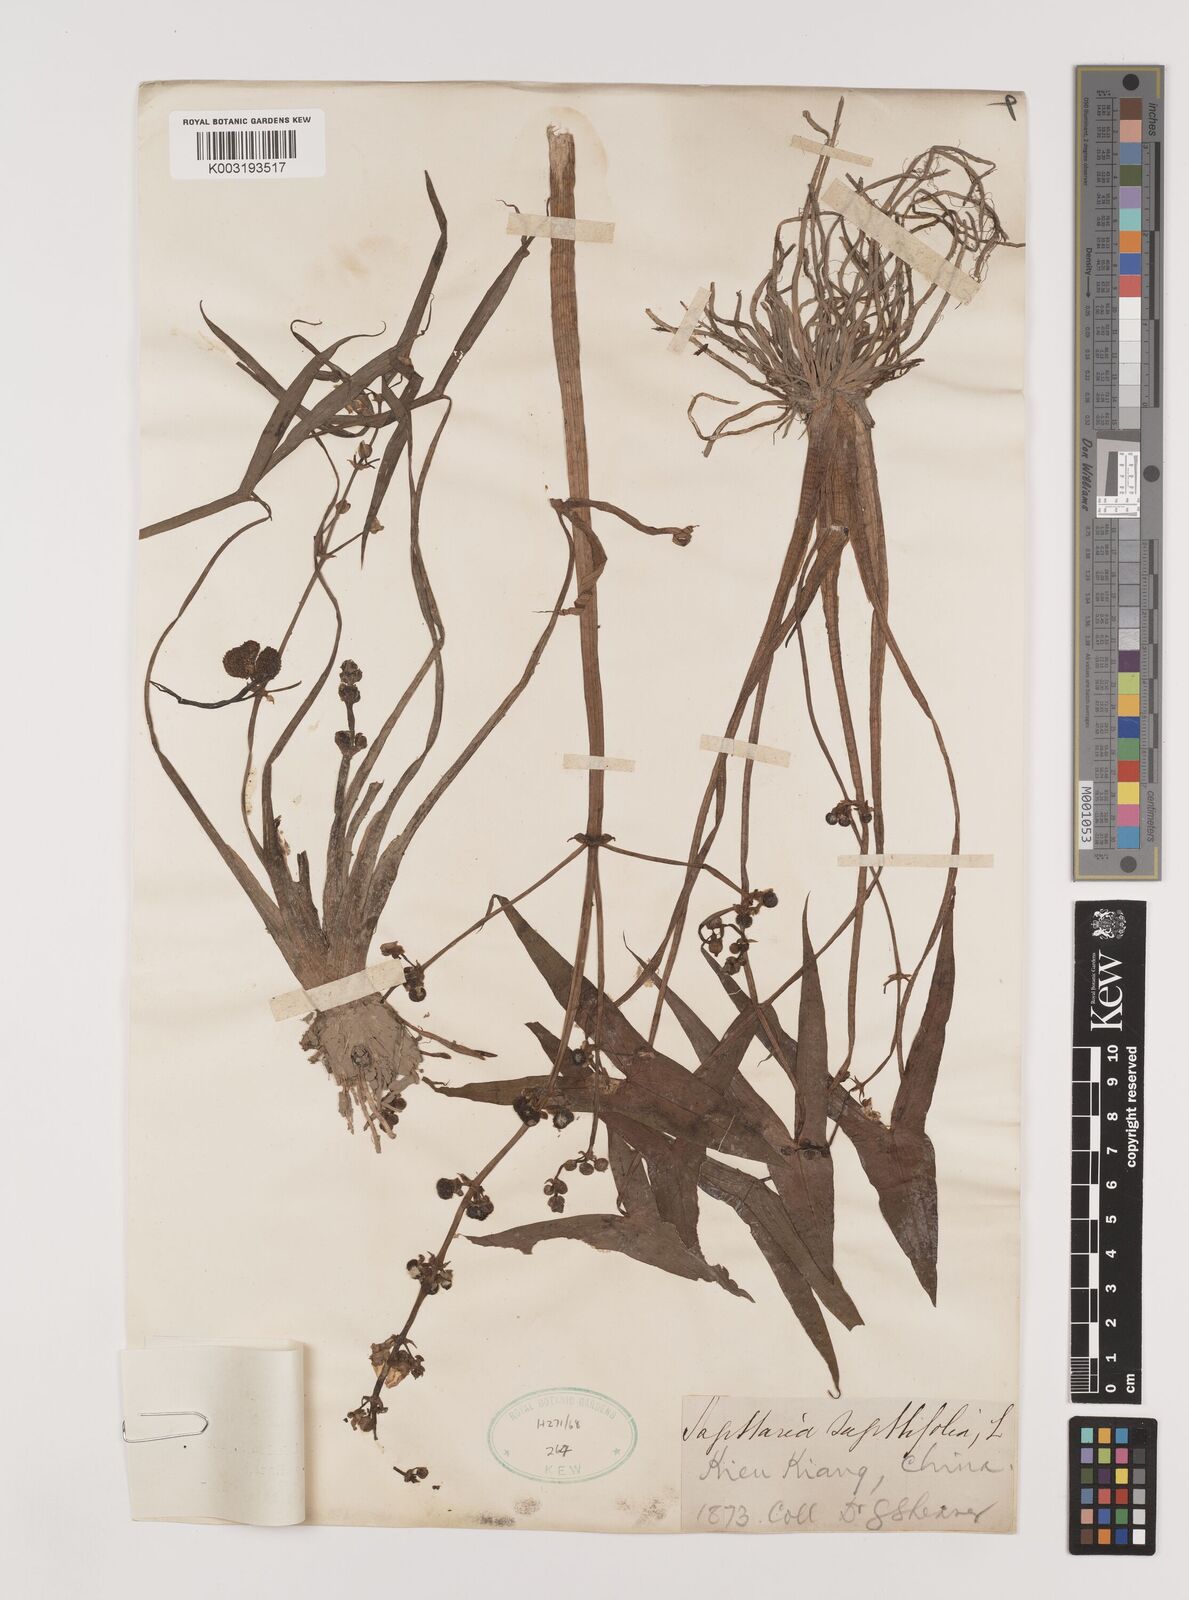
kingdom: Plantae
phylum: Tracheophyta
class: Liliopsida
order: Alismatales
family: Alismataceae
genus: Sagittaria
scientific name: Sagittaria sagittifolia
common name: Arrowhead
